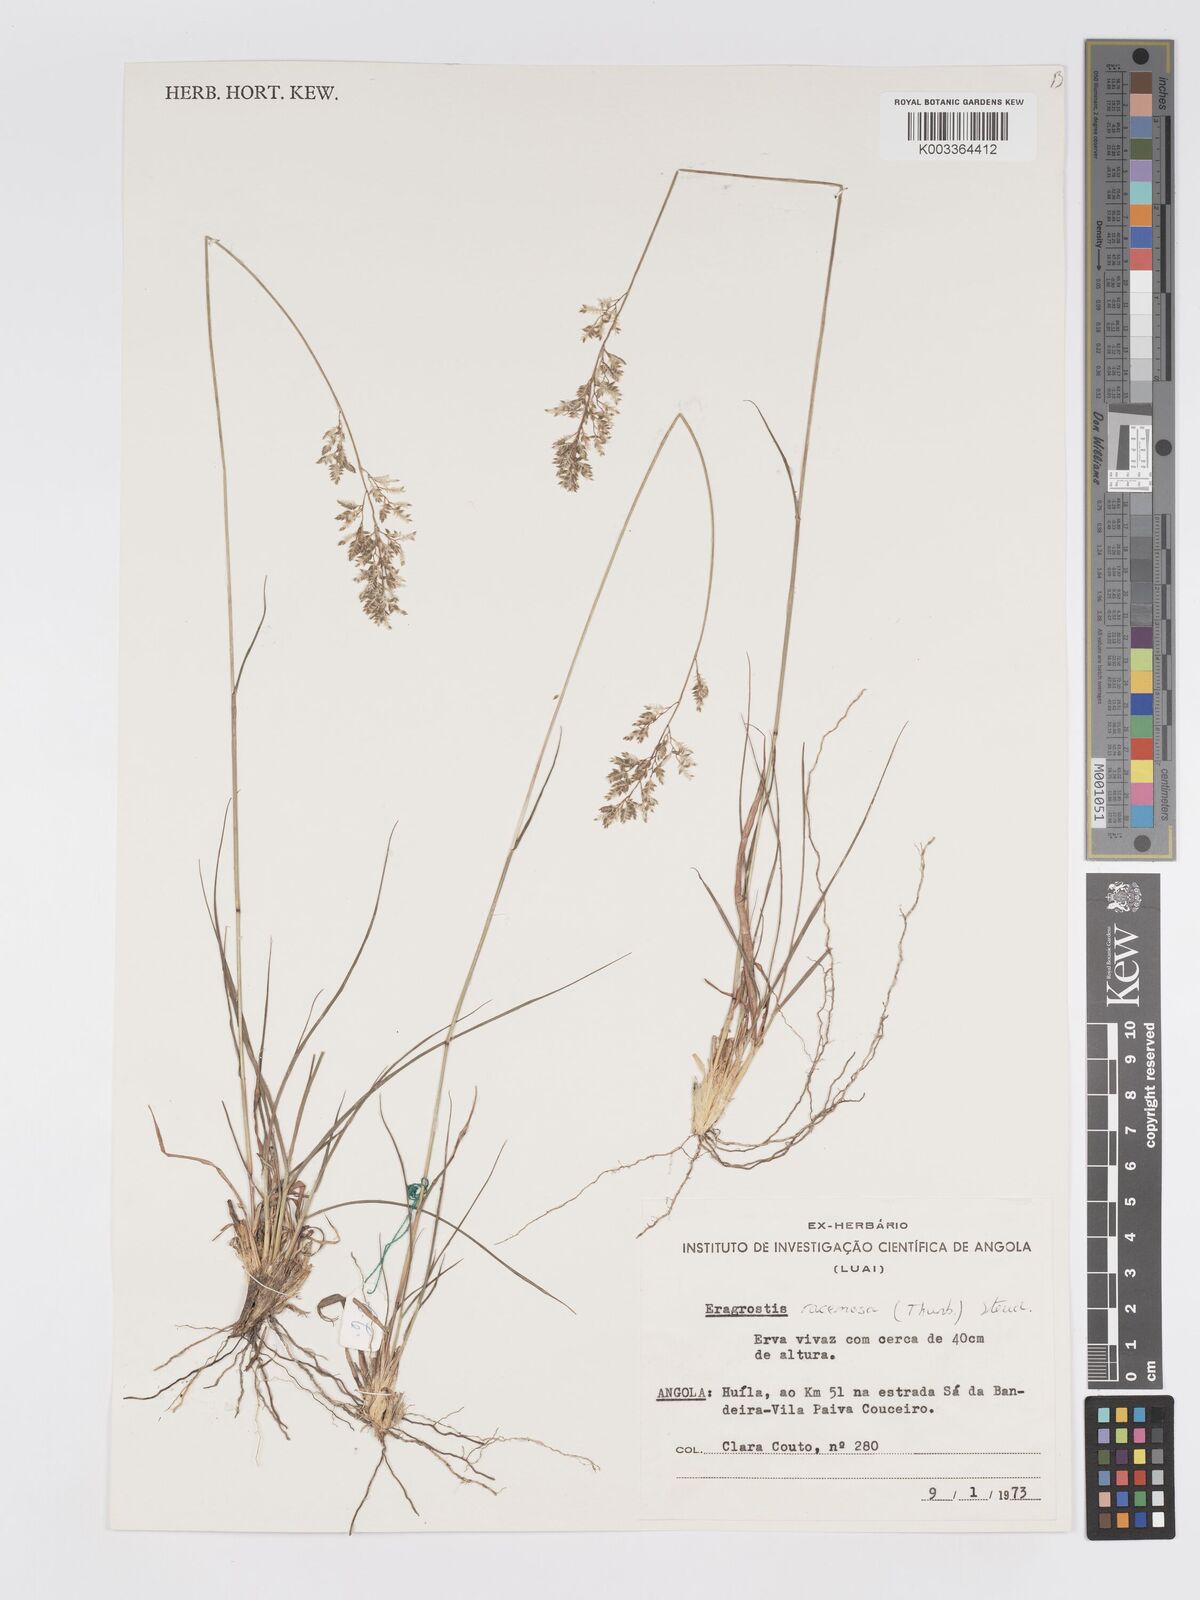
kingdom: Plantae
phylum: Tracheophyta
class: Liliopsida
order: Poales
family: Poaceae
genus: Eragrostis
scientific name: Eragrostis racemosa
